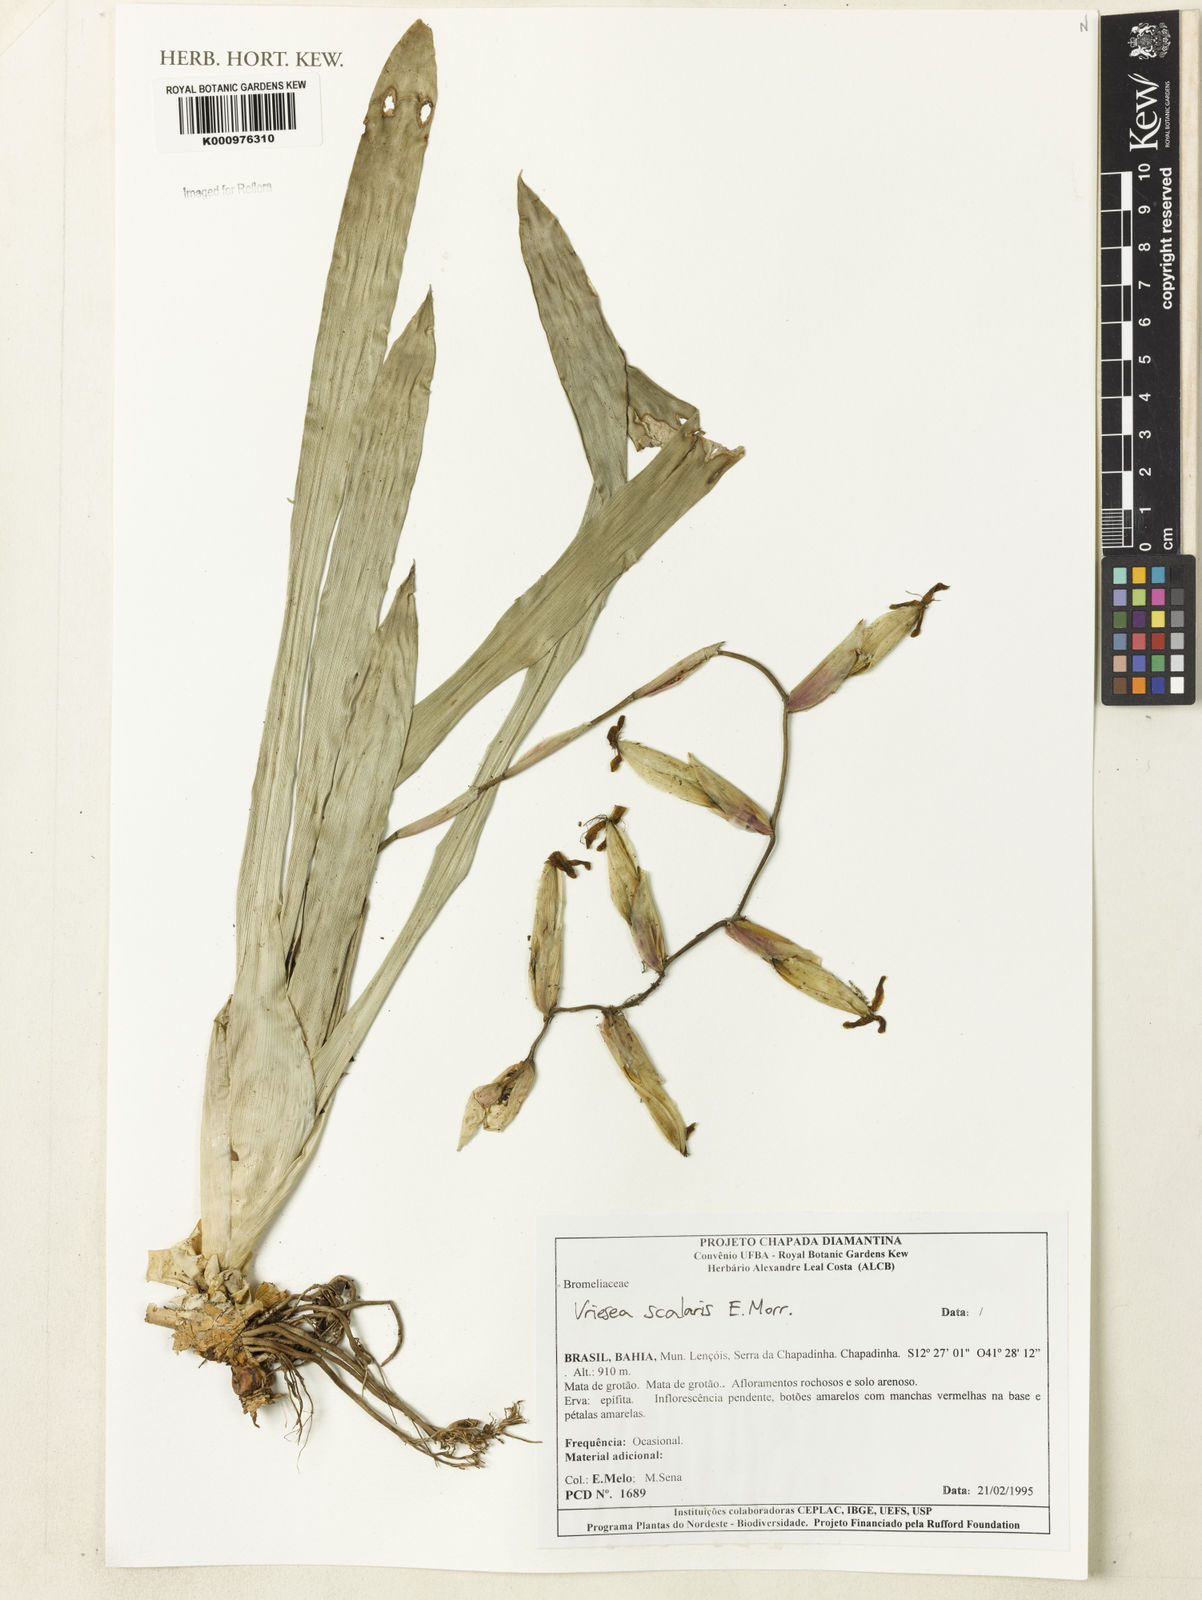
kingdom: Plantae
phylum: Tracheophyta
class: Liliopsida
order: Poales
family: Bromeliaceae
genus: Vriesea
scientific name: Vriesea scalaris
